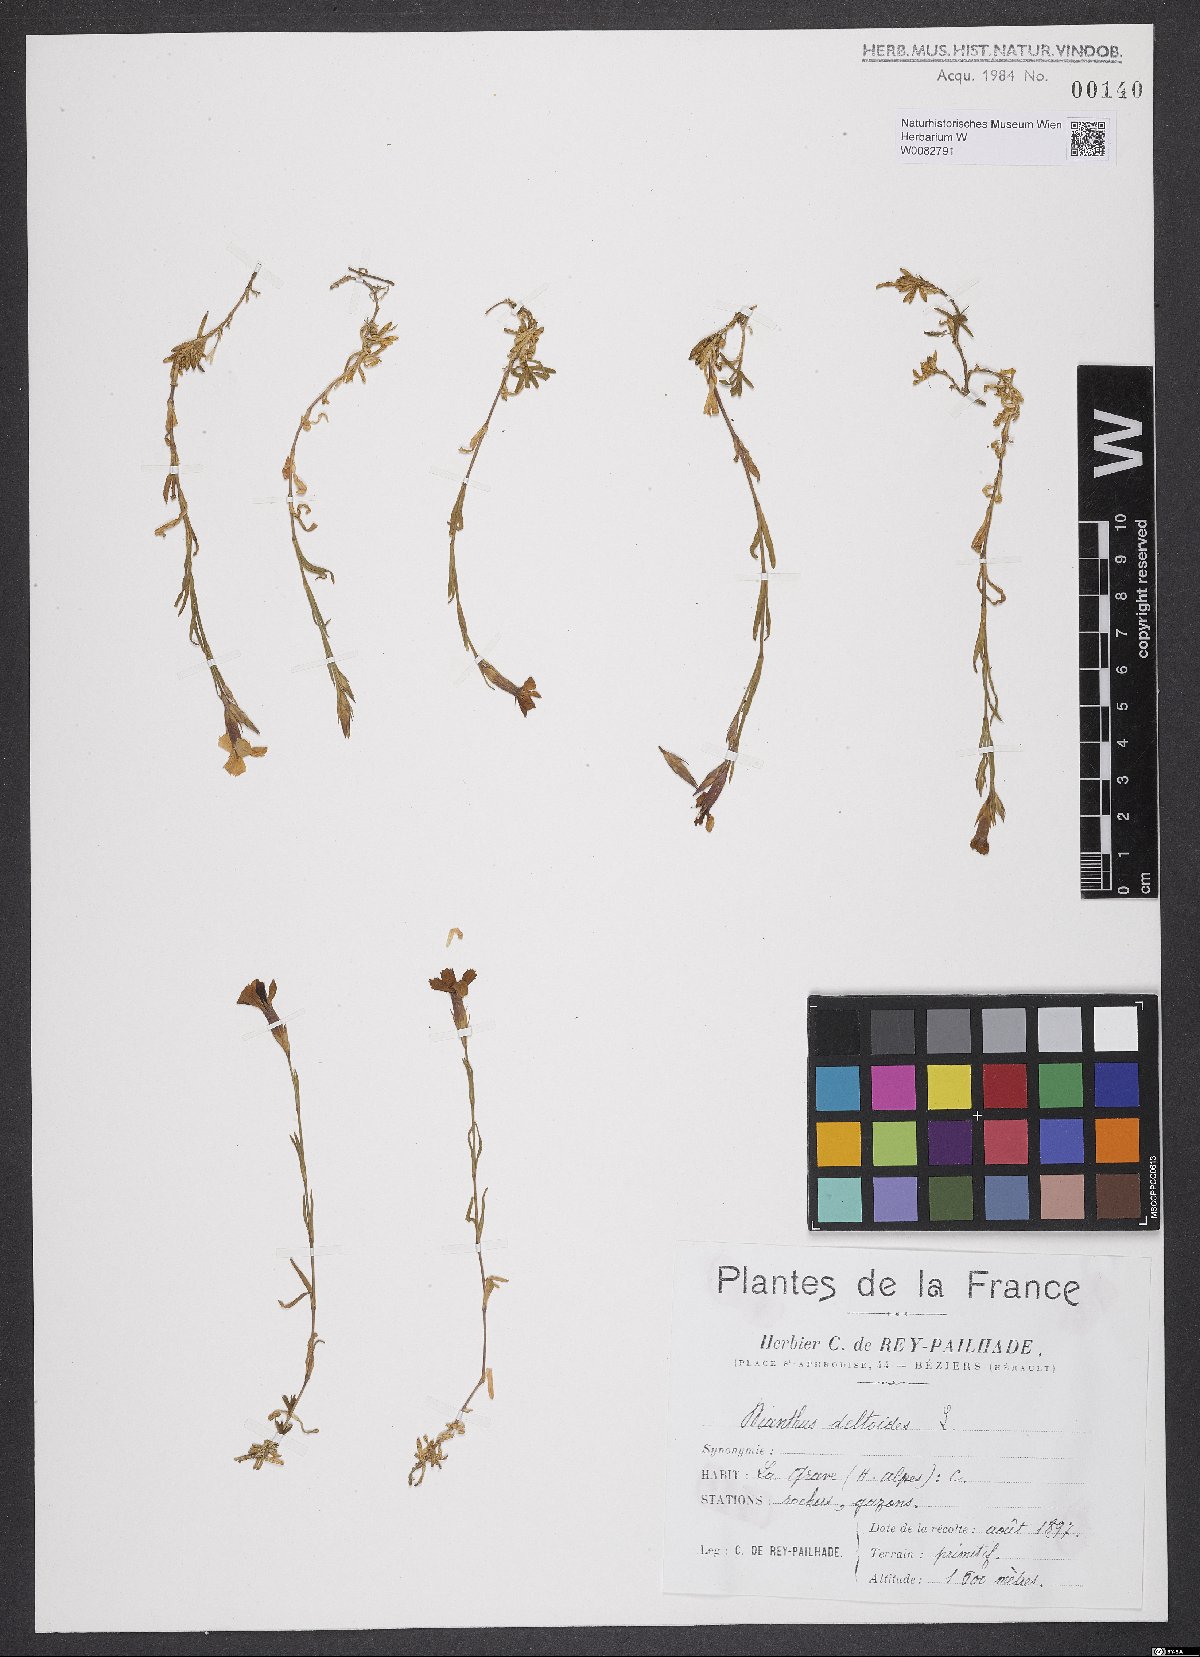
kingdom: Plantae
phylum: Tracheophyta
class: Magnoliopsida
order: Caryophyllales
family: Caryophyllaceae
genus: Dianthus
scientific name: Dianthus deltoides
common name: Maiden pink
